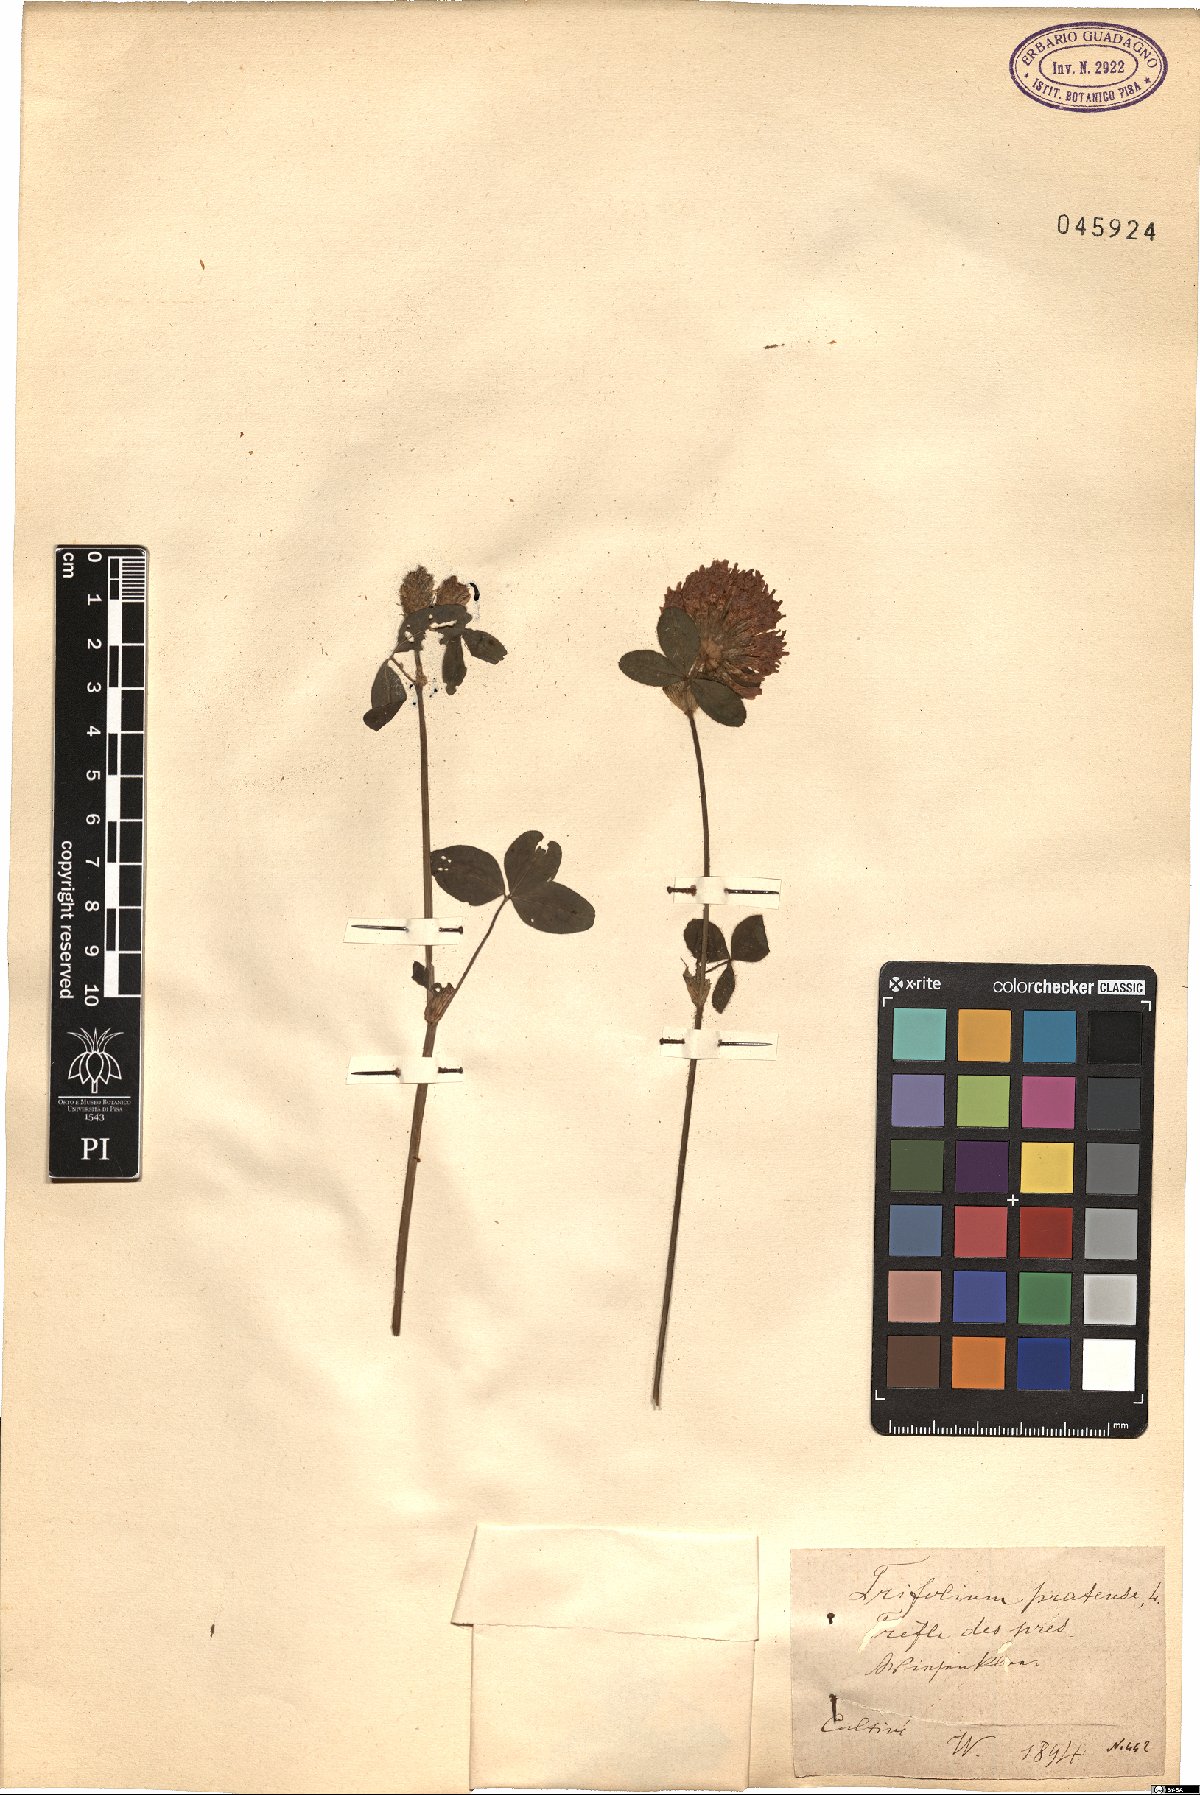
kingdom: Plantae
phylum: Tracheophyta
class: Magnoliopsida
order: Fabales
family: Fabaceae
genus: Trifolium
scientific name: Trifolium pratense
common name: Red clover
